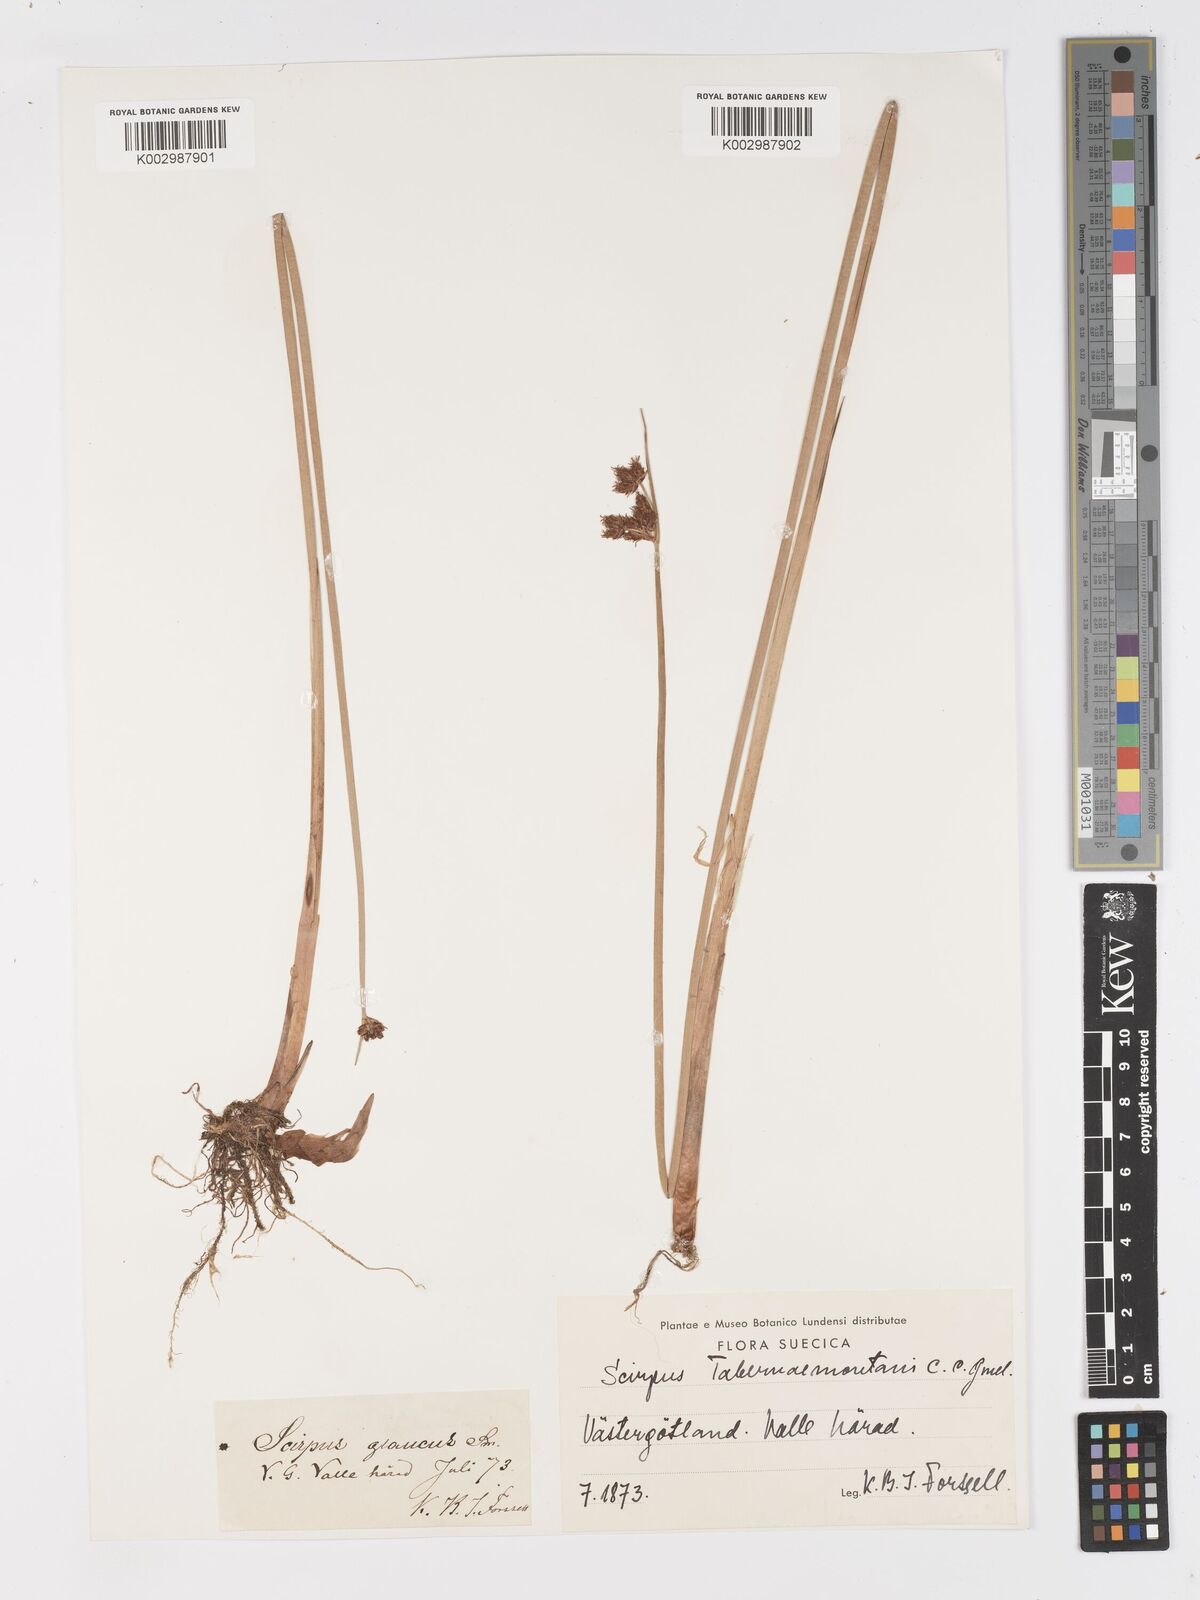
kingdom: Plantae
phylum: Tracheophyta
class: Liliopsida
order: Poales
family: Cyperaceae
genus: Schoenoplectus
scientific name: Schoenoplectus tabernaemontani
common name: Grey club-rush
